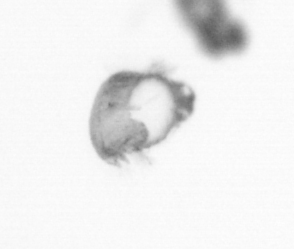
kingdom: Animalia
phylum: Annelida
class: Polychaeta
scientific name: Polychaeta
